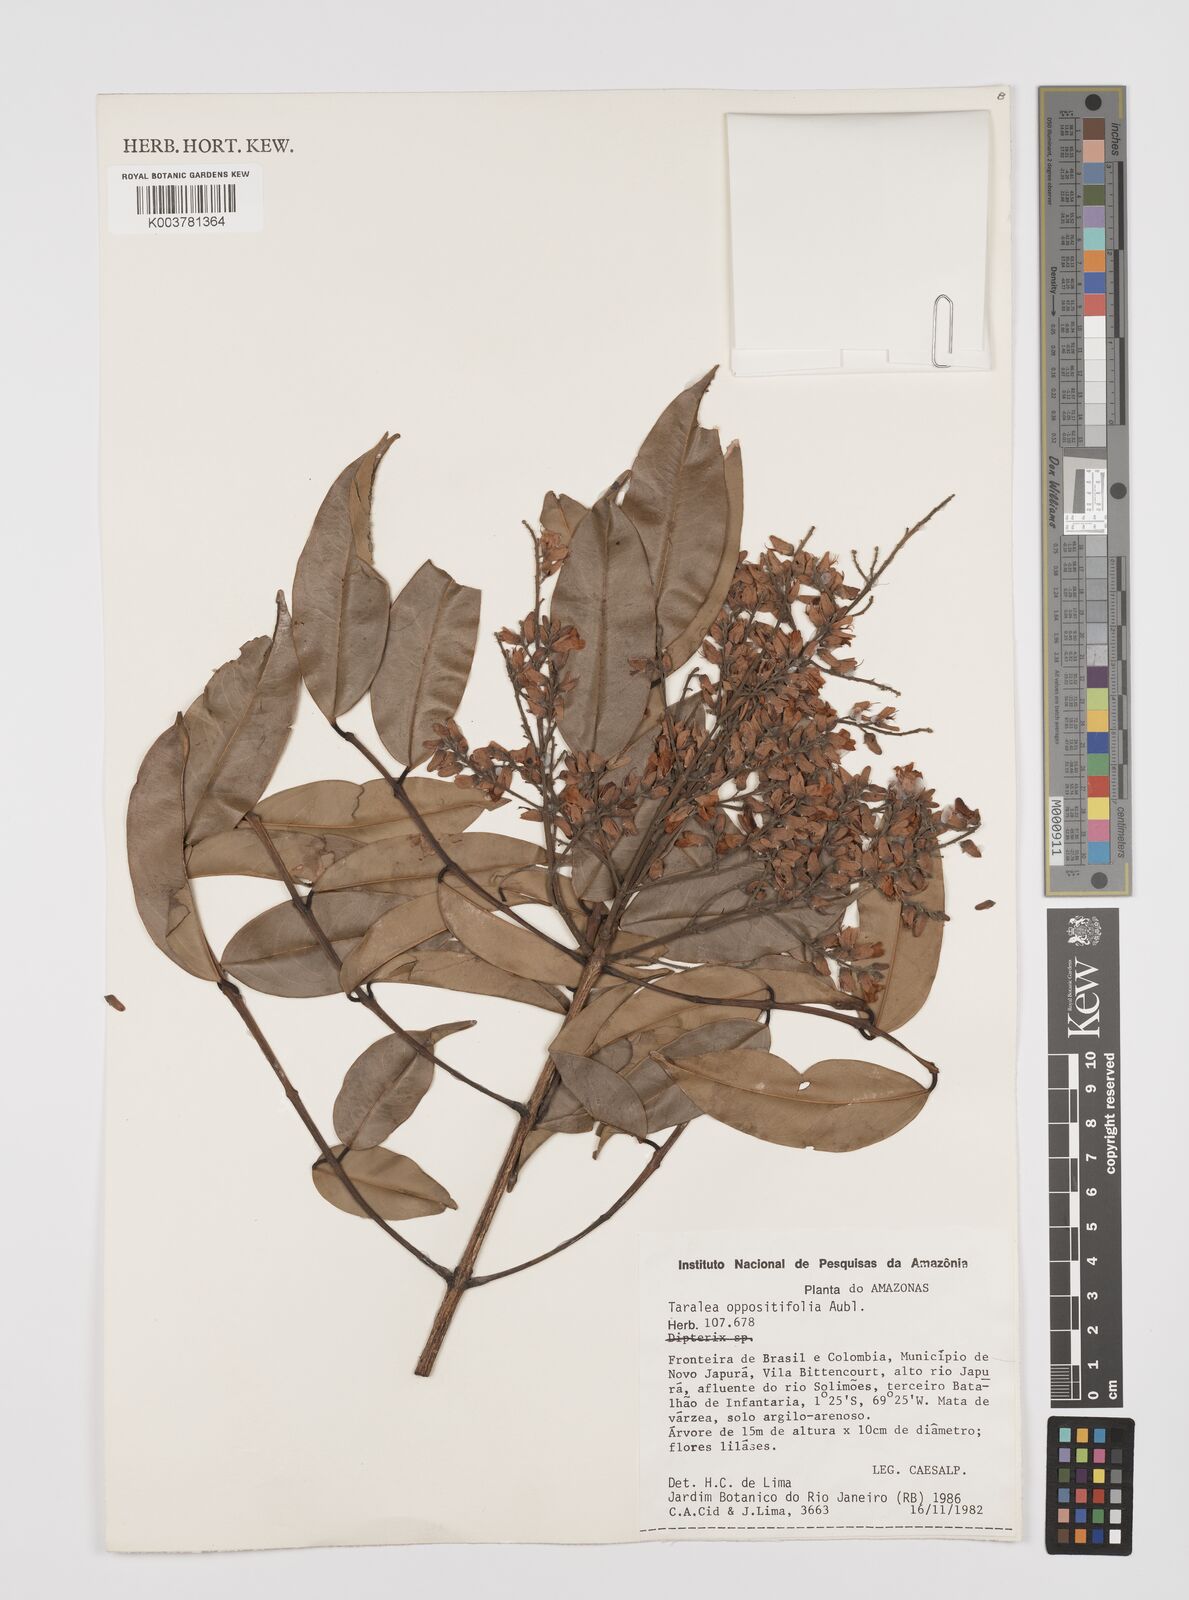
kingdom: Plantae
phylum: Tracheophyta
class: Magnoliopsida
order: Fabales
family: Fabaceae
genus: Taralea
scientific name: Taralea oppositifolia
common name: Tonka
